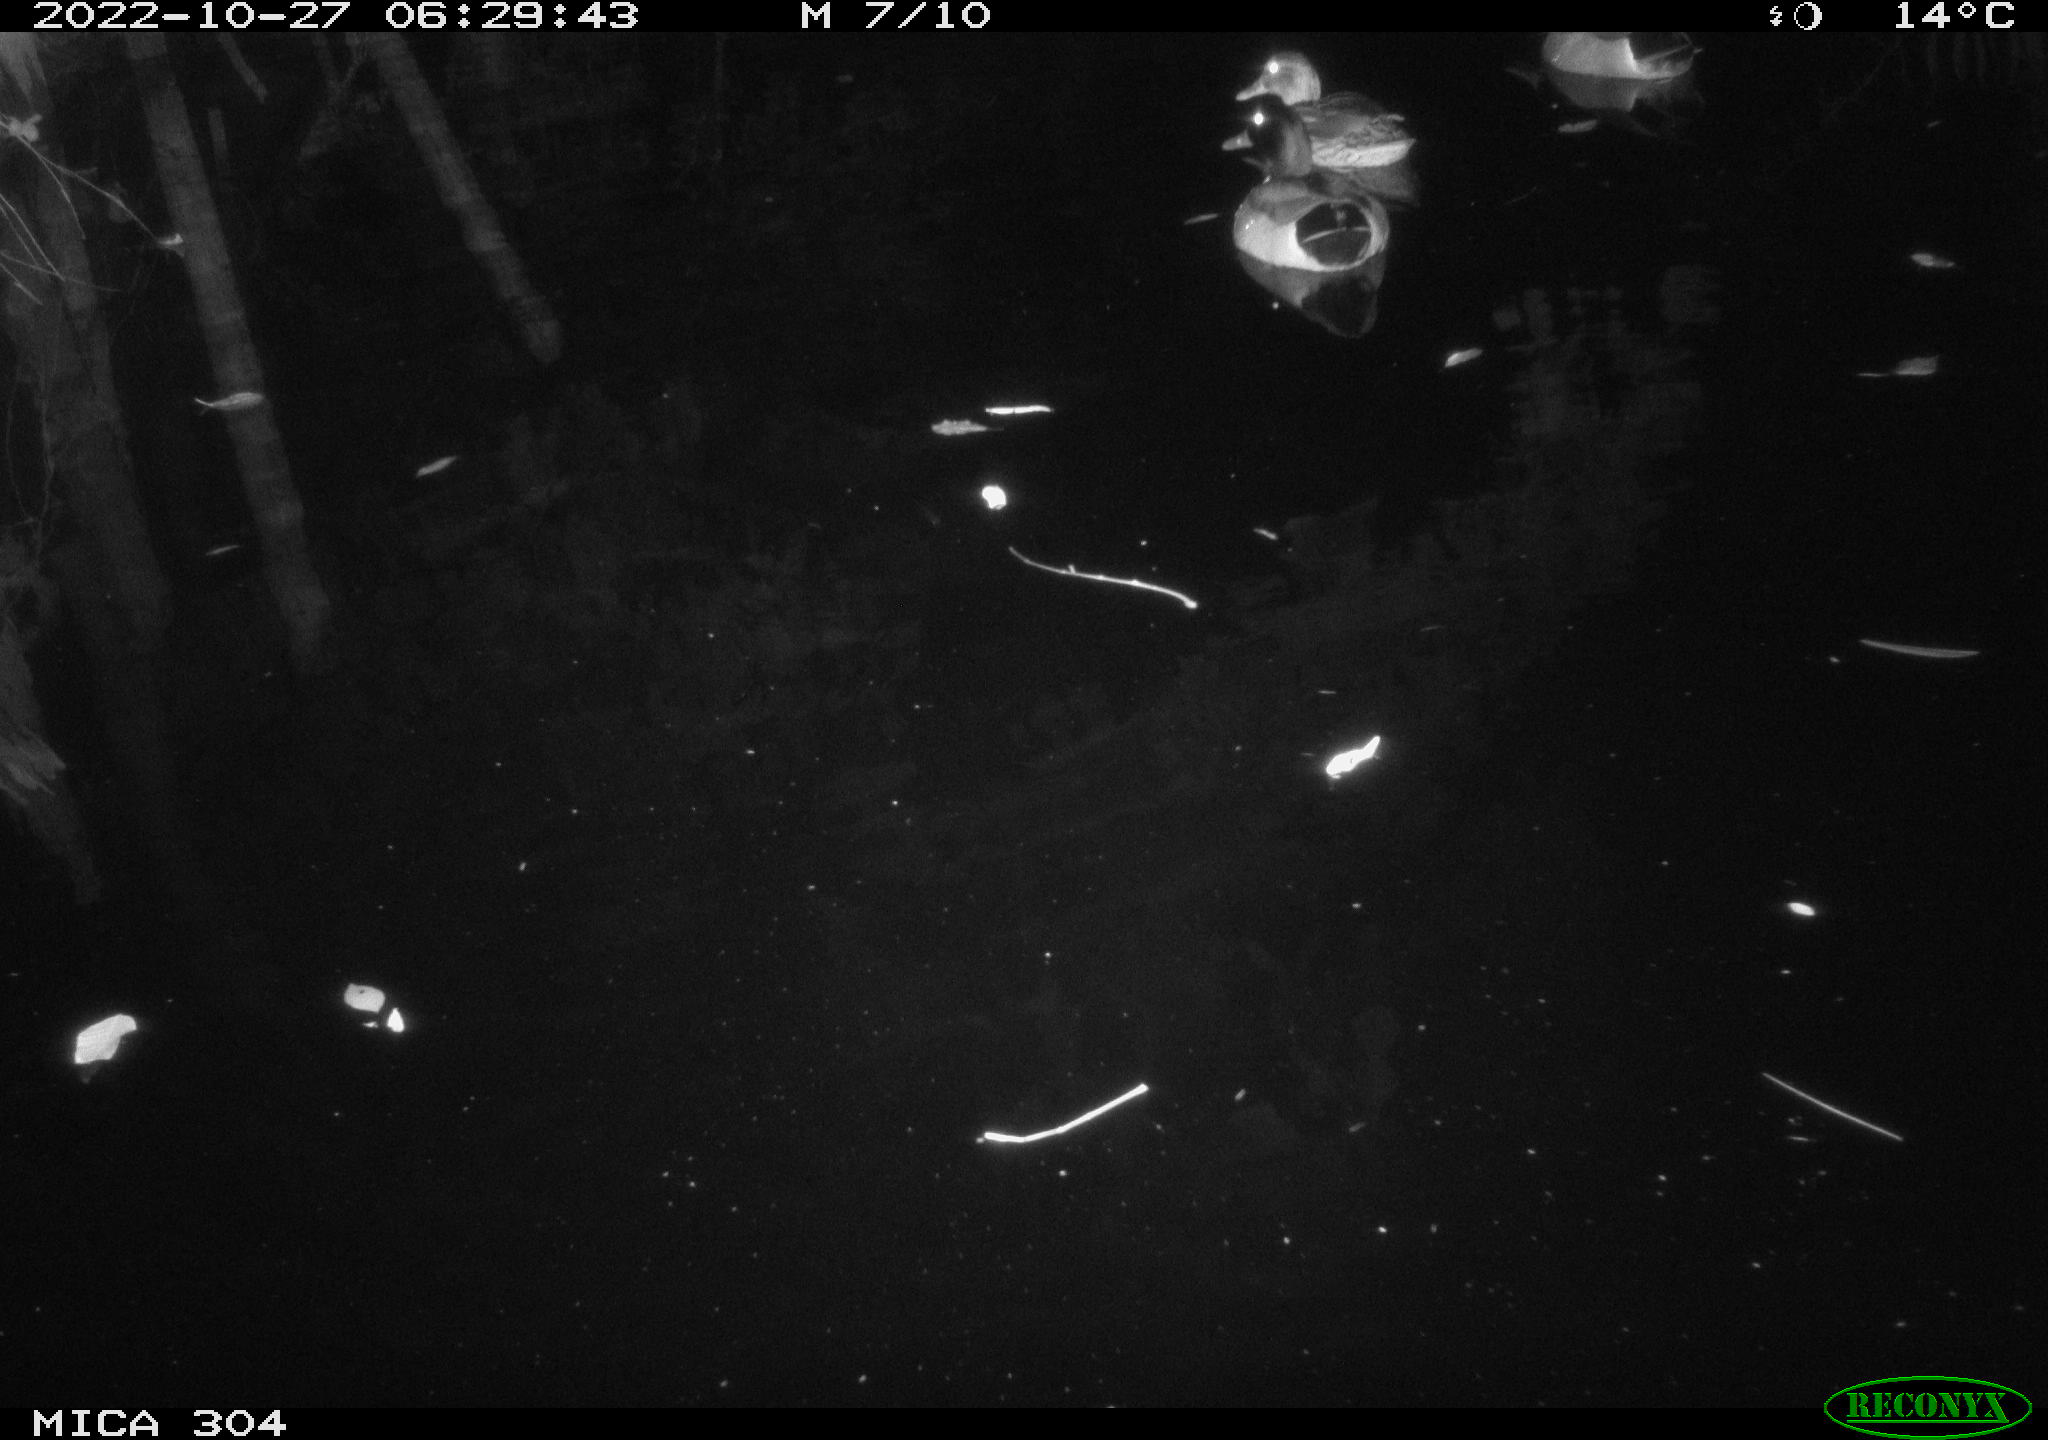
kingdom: Animalia
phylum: Chordata
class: Mammalia
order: Rodentia
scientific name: Rodentia
